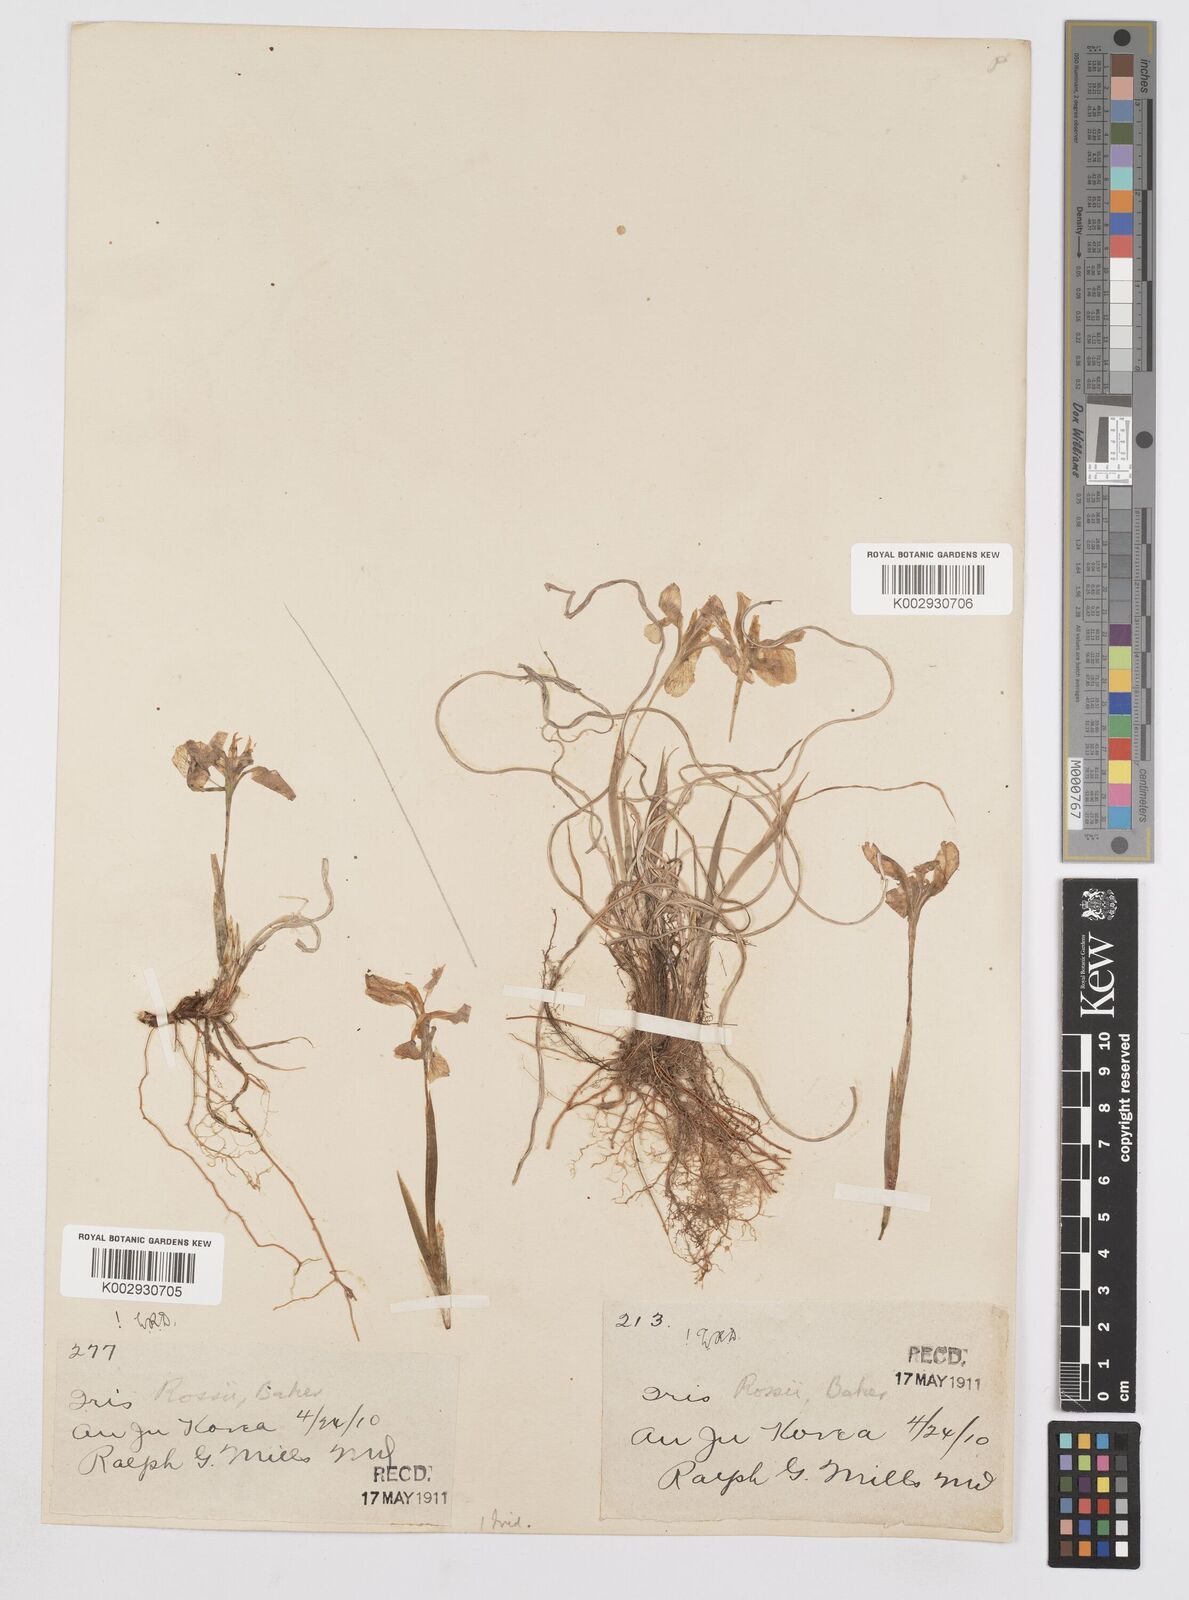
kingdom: Plantae
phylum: Tracheophyta
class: Liliopsida
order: Asparagales
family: Iridaceae
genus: Iris
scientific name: Iris rossii
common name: Long-tail iris
